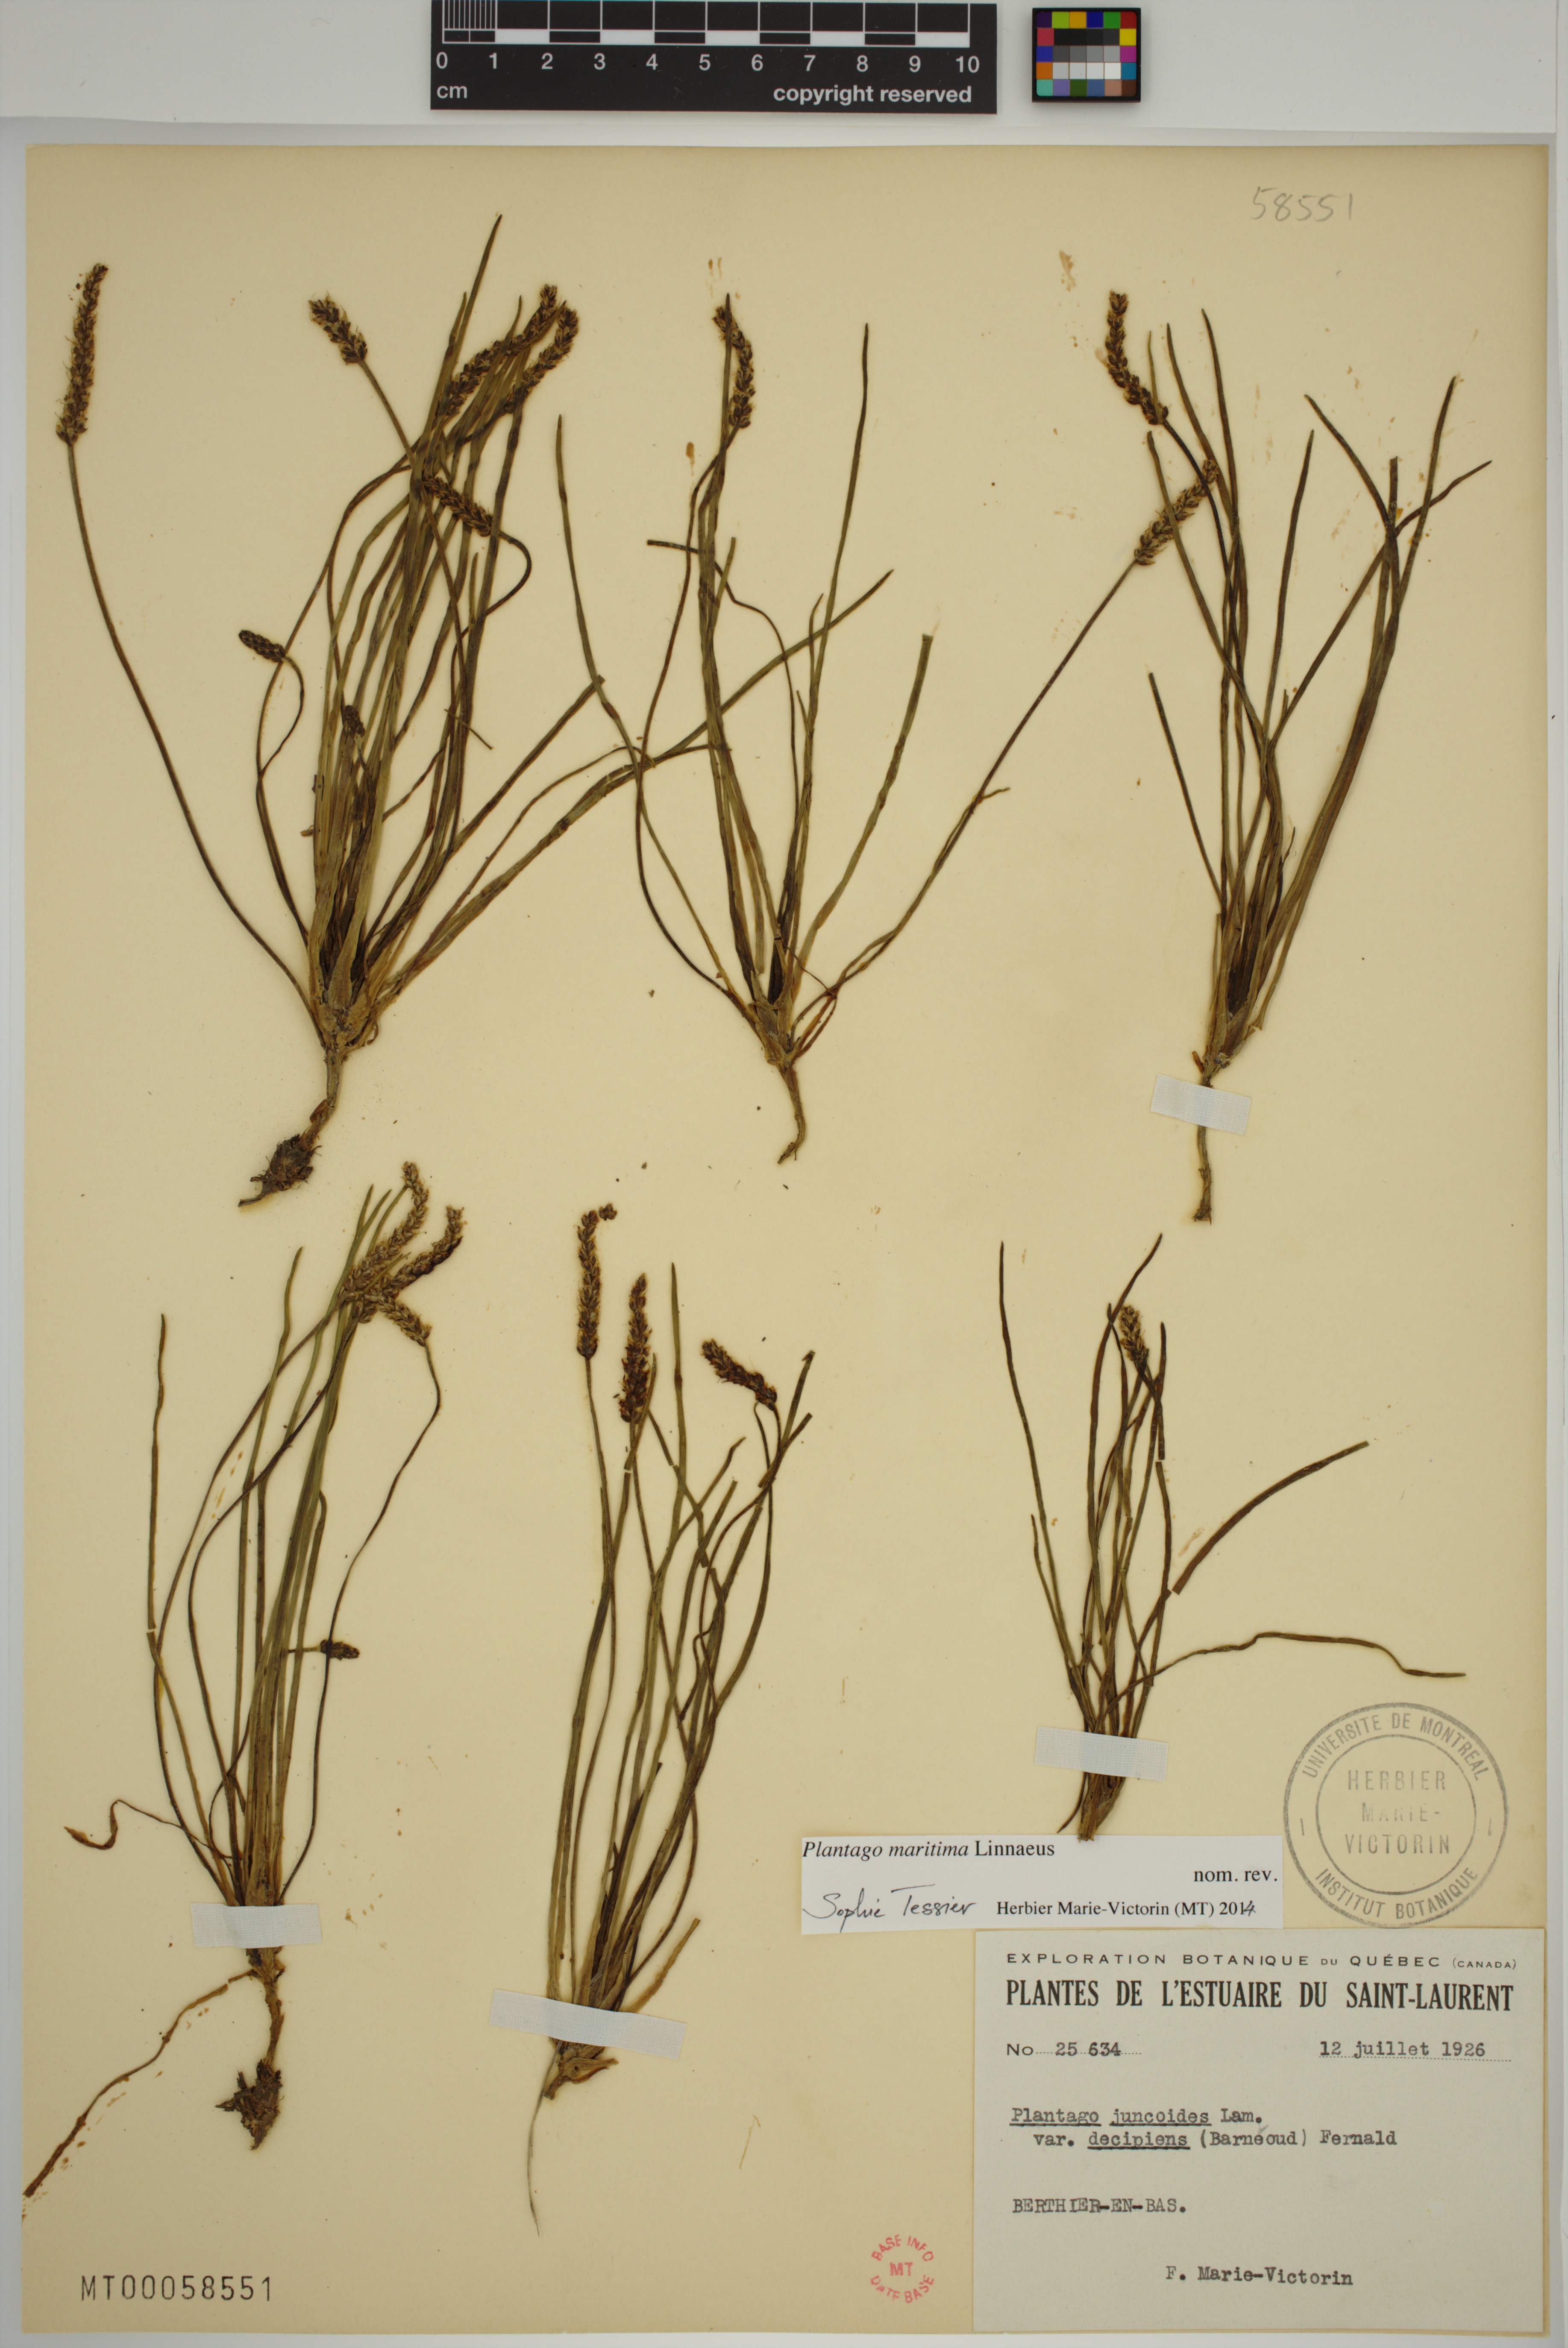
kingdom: Plantae
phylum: Tracheophyta
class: Magnoliopsida
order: Lamiales
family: Plantaginaceae
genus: Plantago
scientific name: Plantago maritima
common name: Sea plantain
